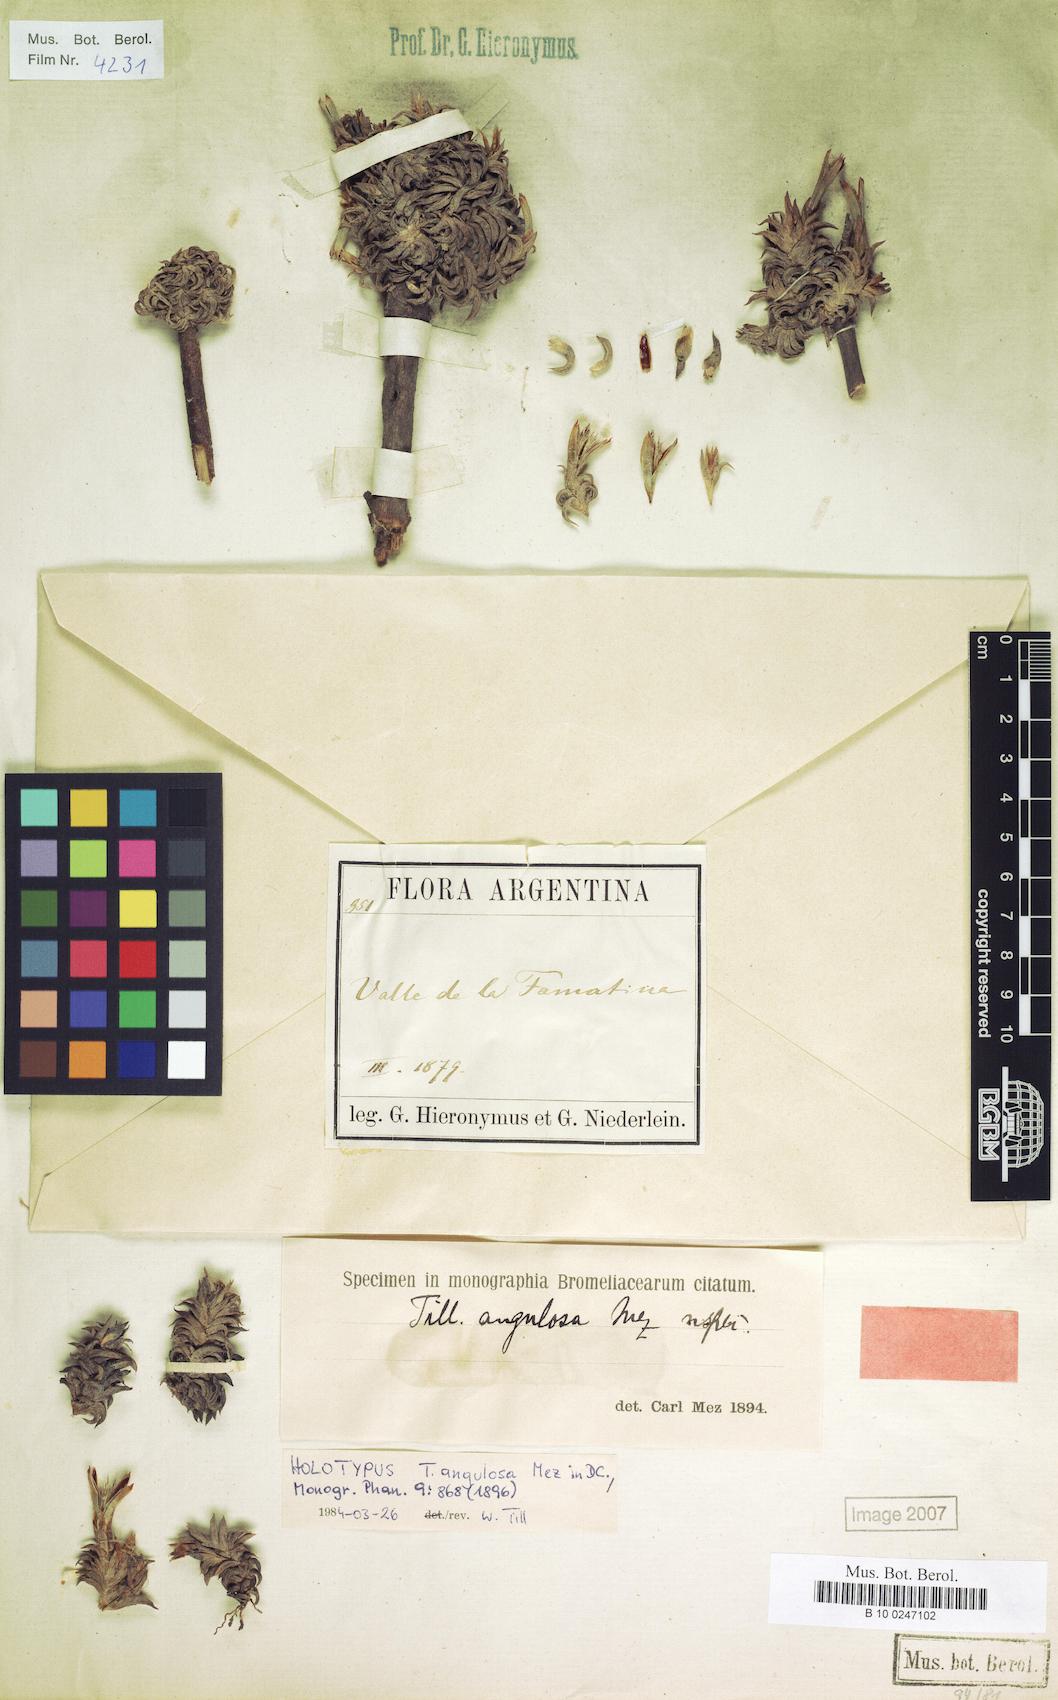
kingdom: Plantae
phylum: Tracheophyta
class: Liliopsida
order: Poales
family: Bromeliaceae
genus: Tillandsia
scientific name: Tillandsia angulosa
